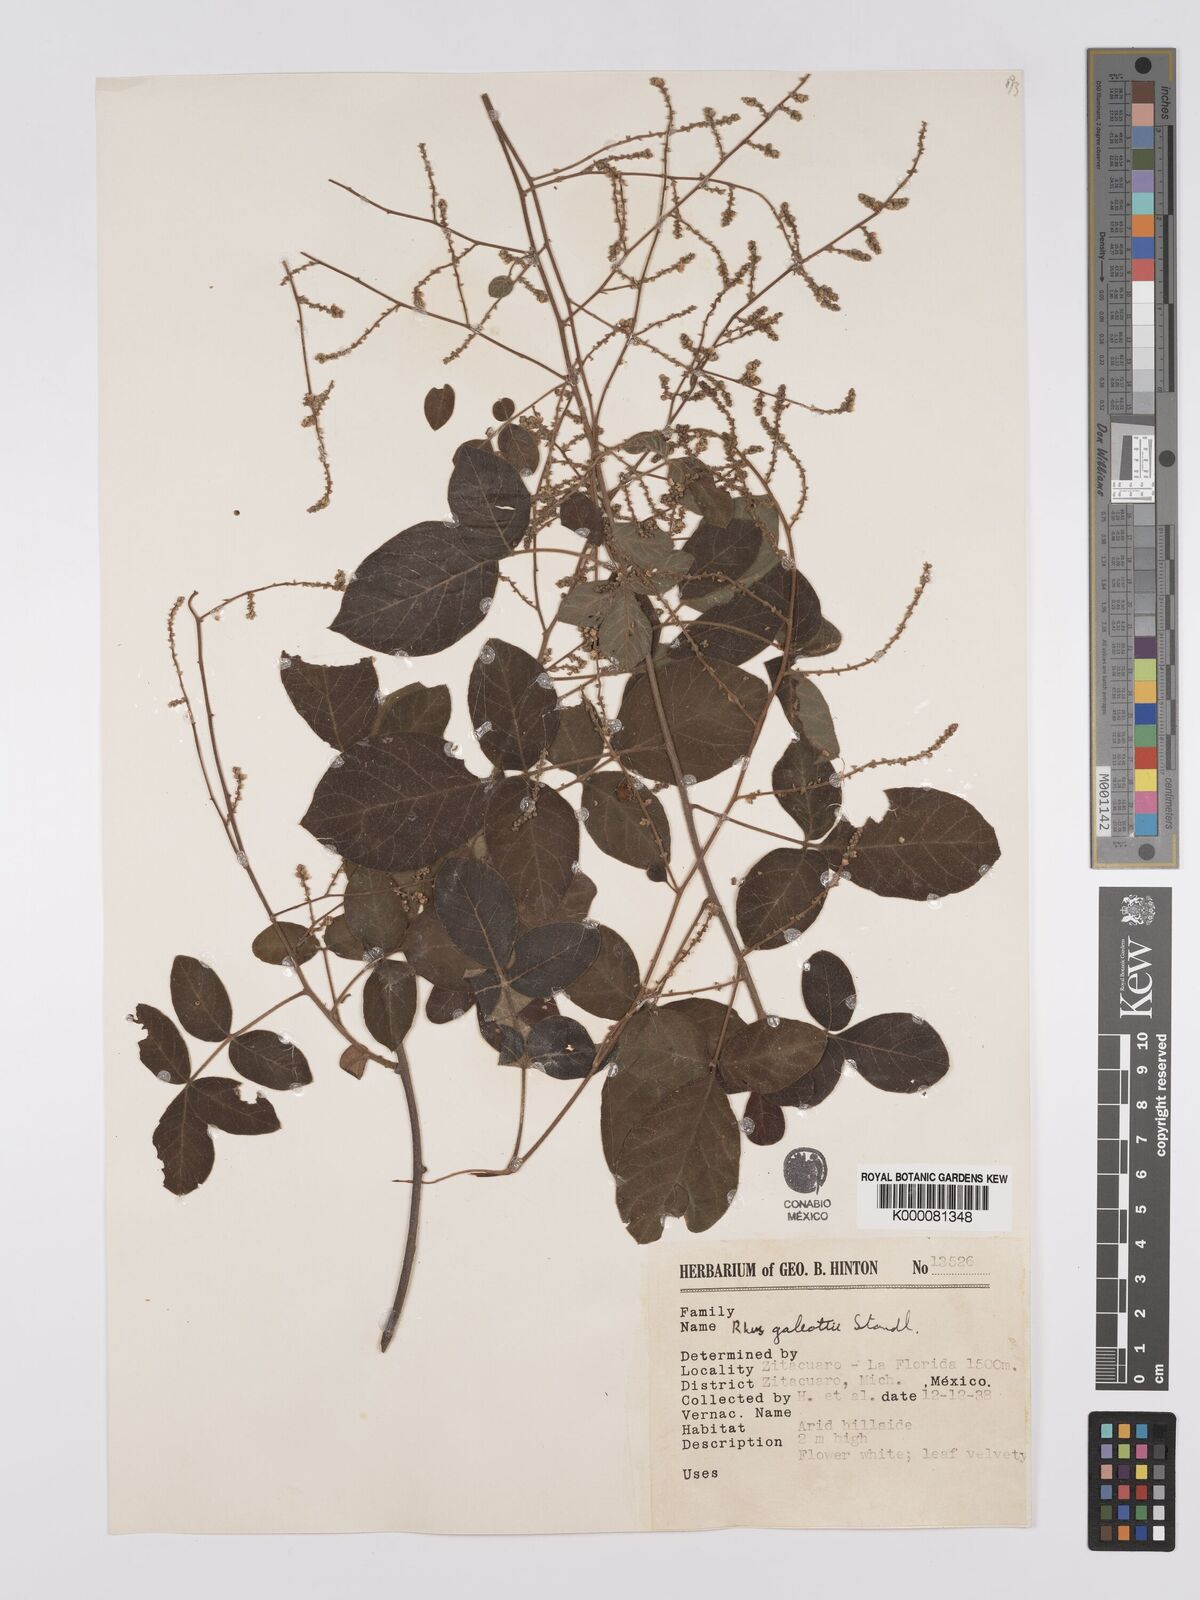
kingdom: Plantae
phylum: Tracheophyta
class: Magnoliopsida
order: Sapindales
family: Anacardiaceae
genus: Rhus
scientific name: Rhus galeottii
